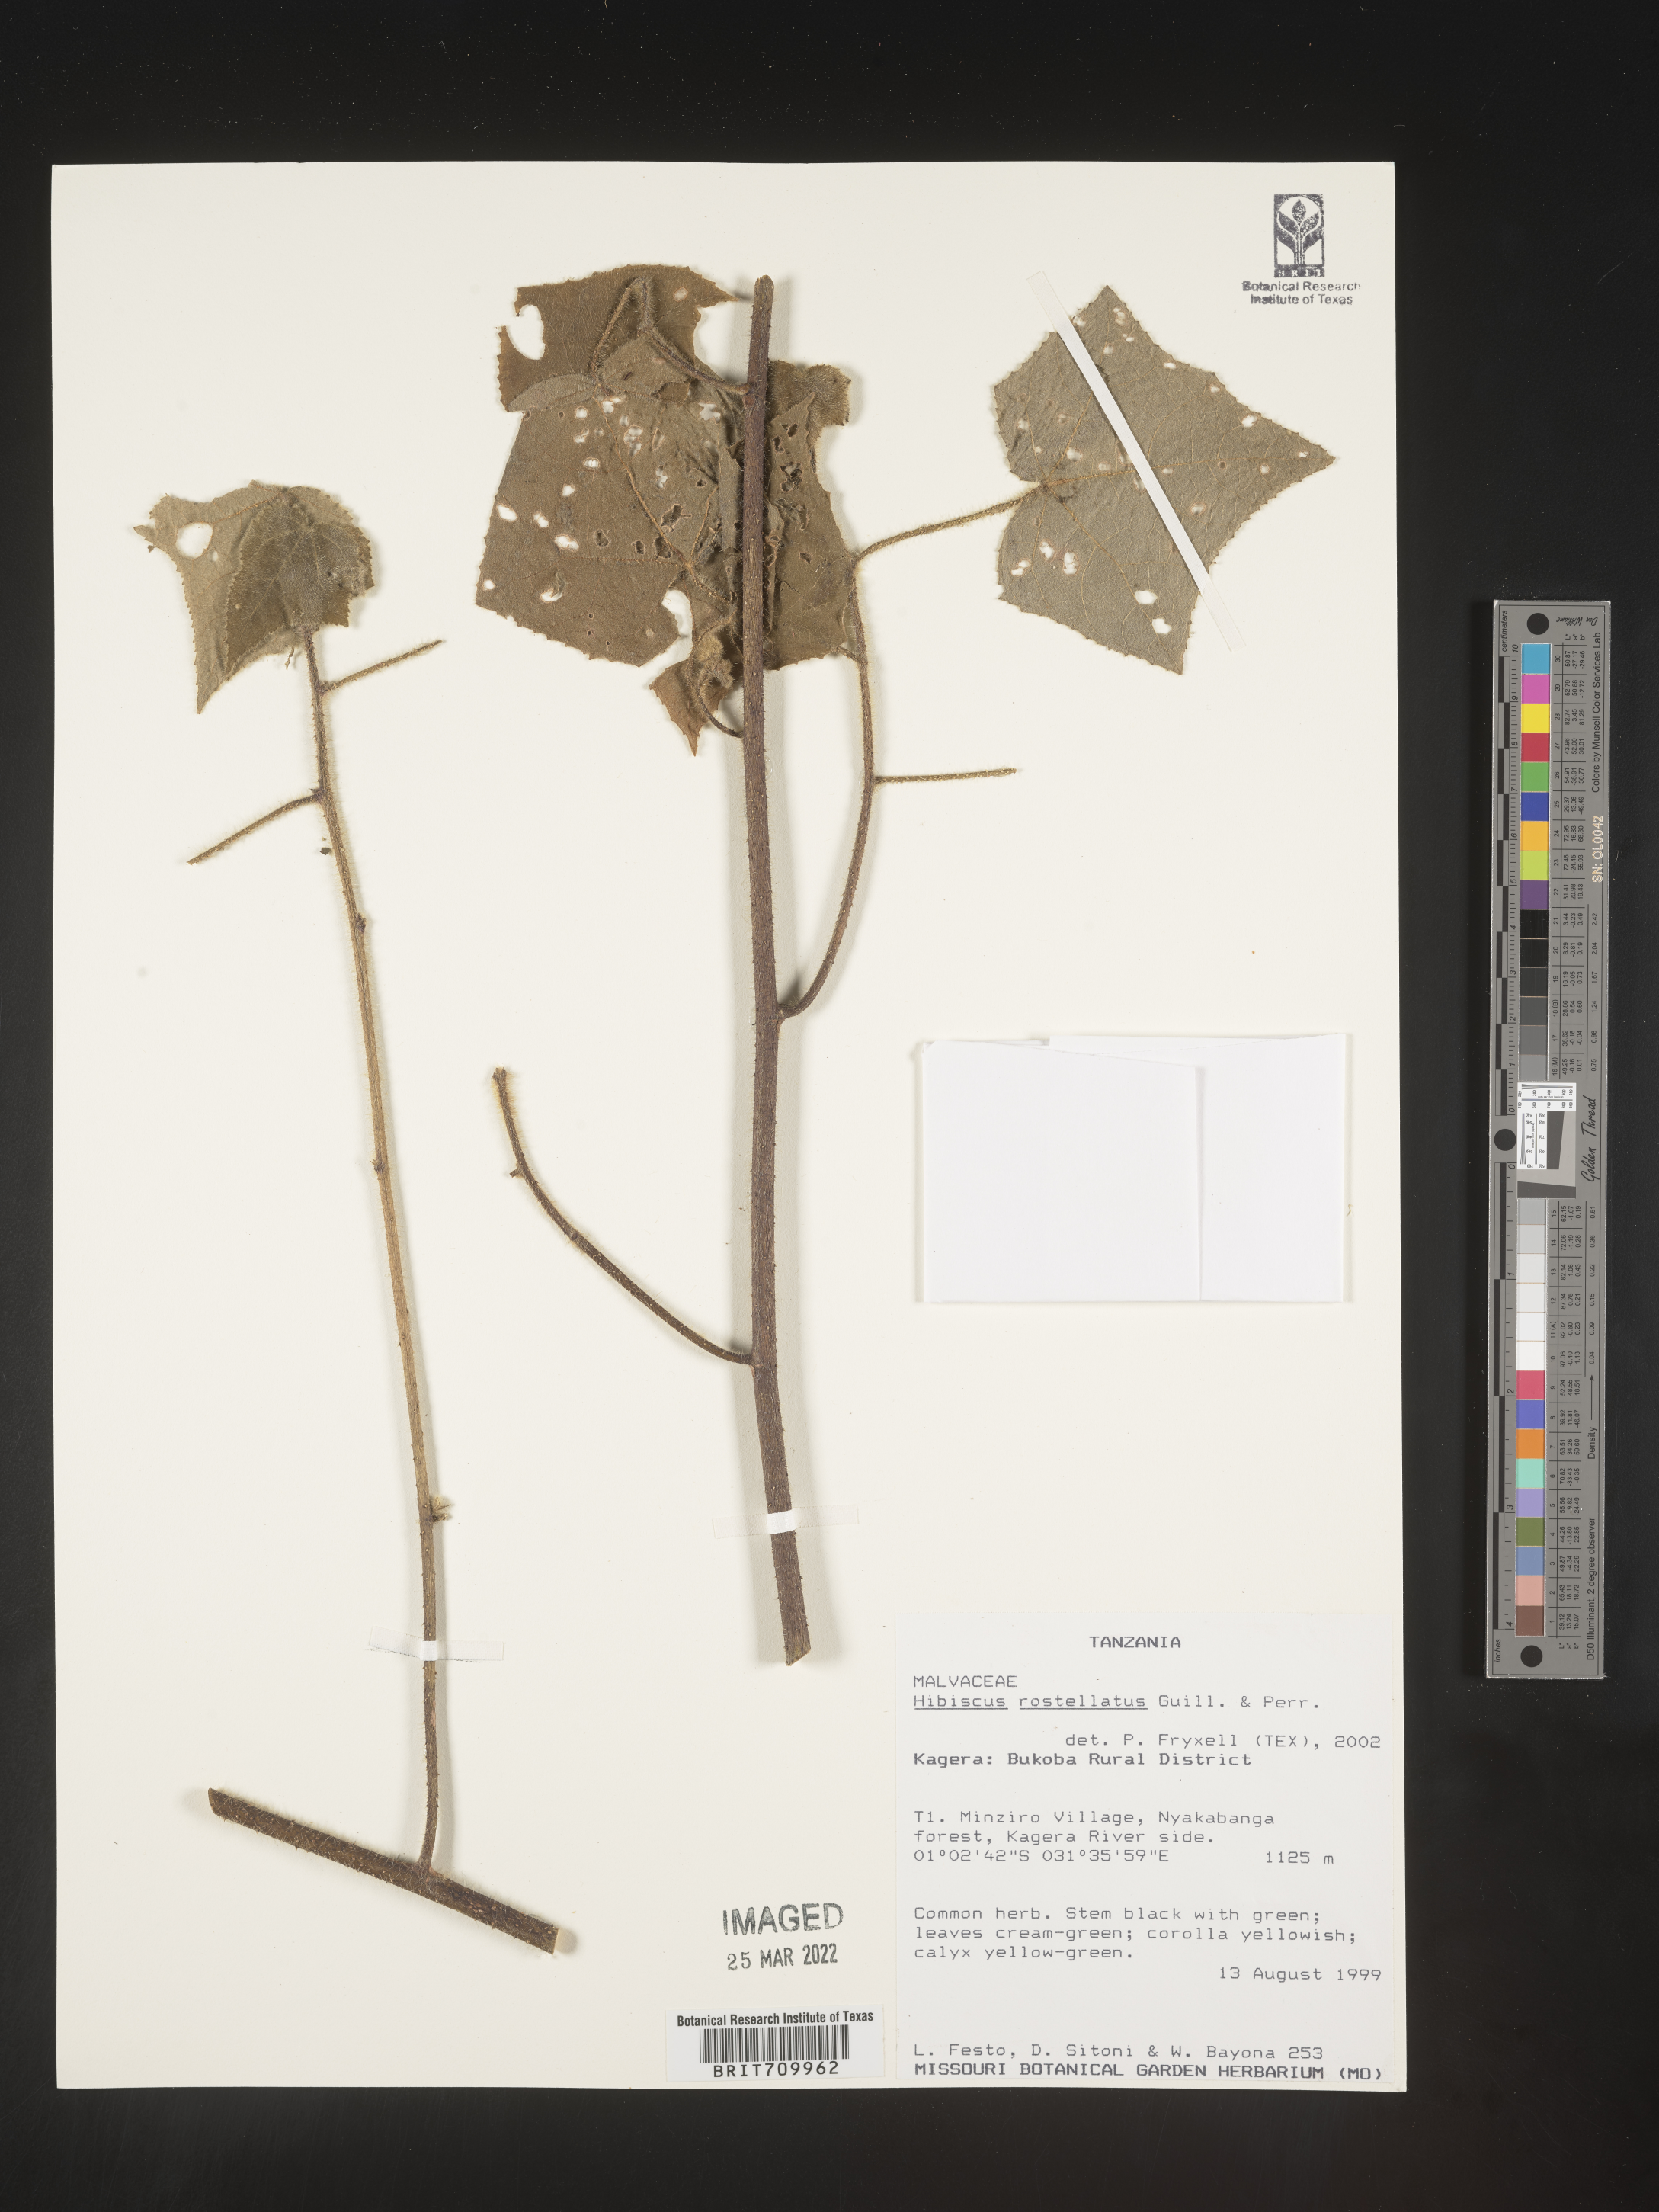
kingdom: Plantae
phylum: Tracheophyta
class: Magnoliopsida
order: Malvales
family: Malvaceae
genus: Hibiscus
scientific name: Hibiscus
